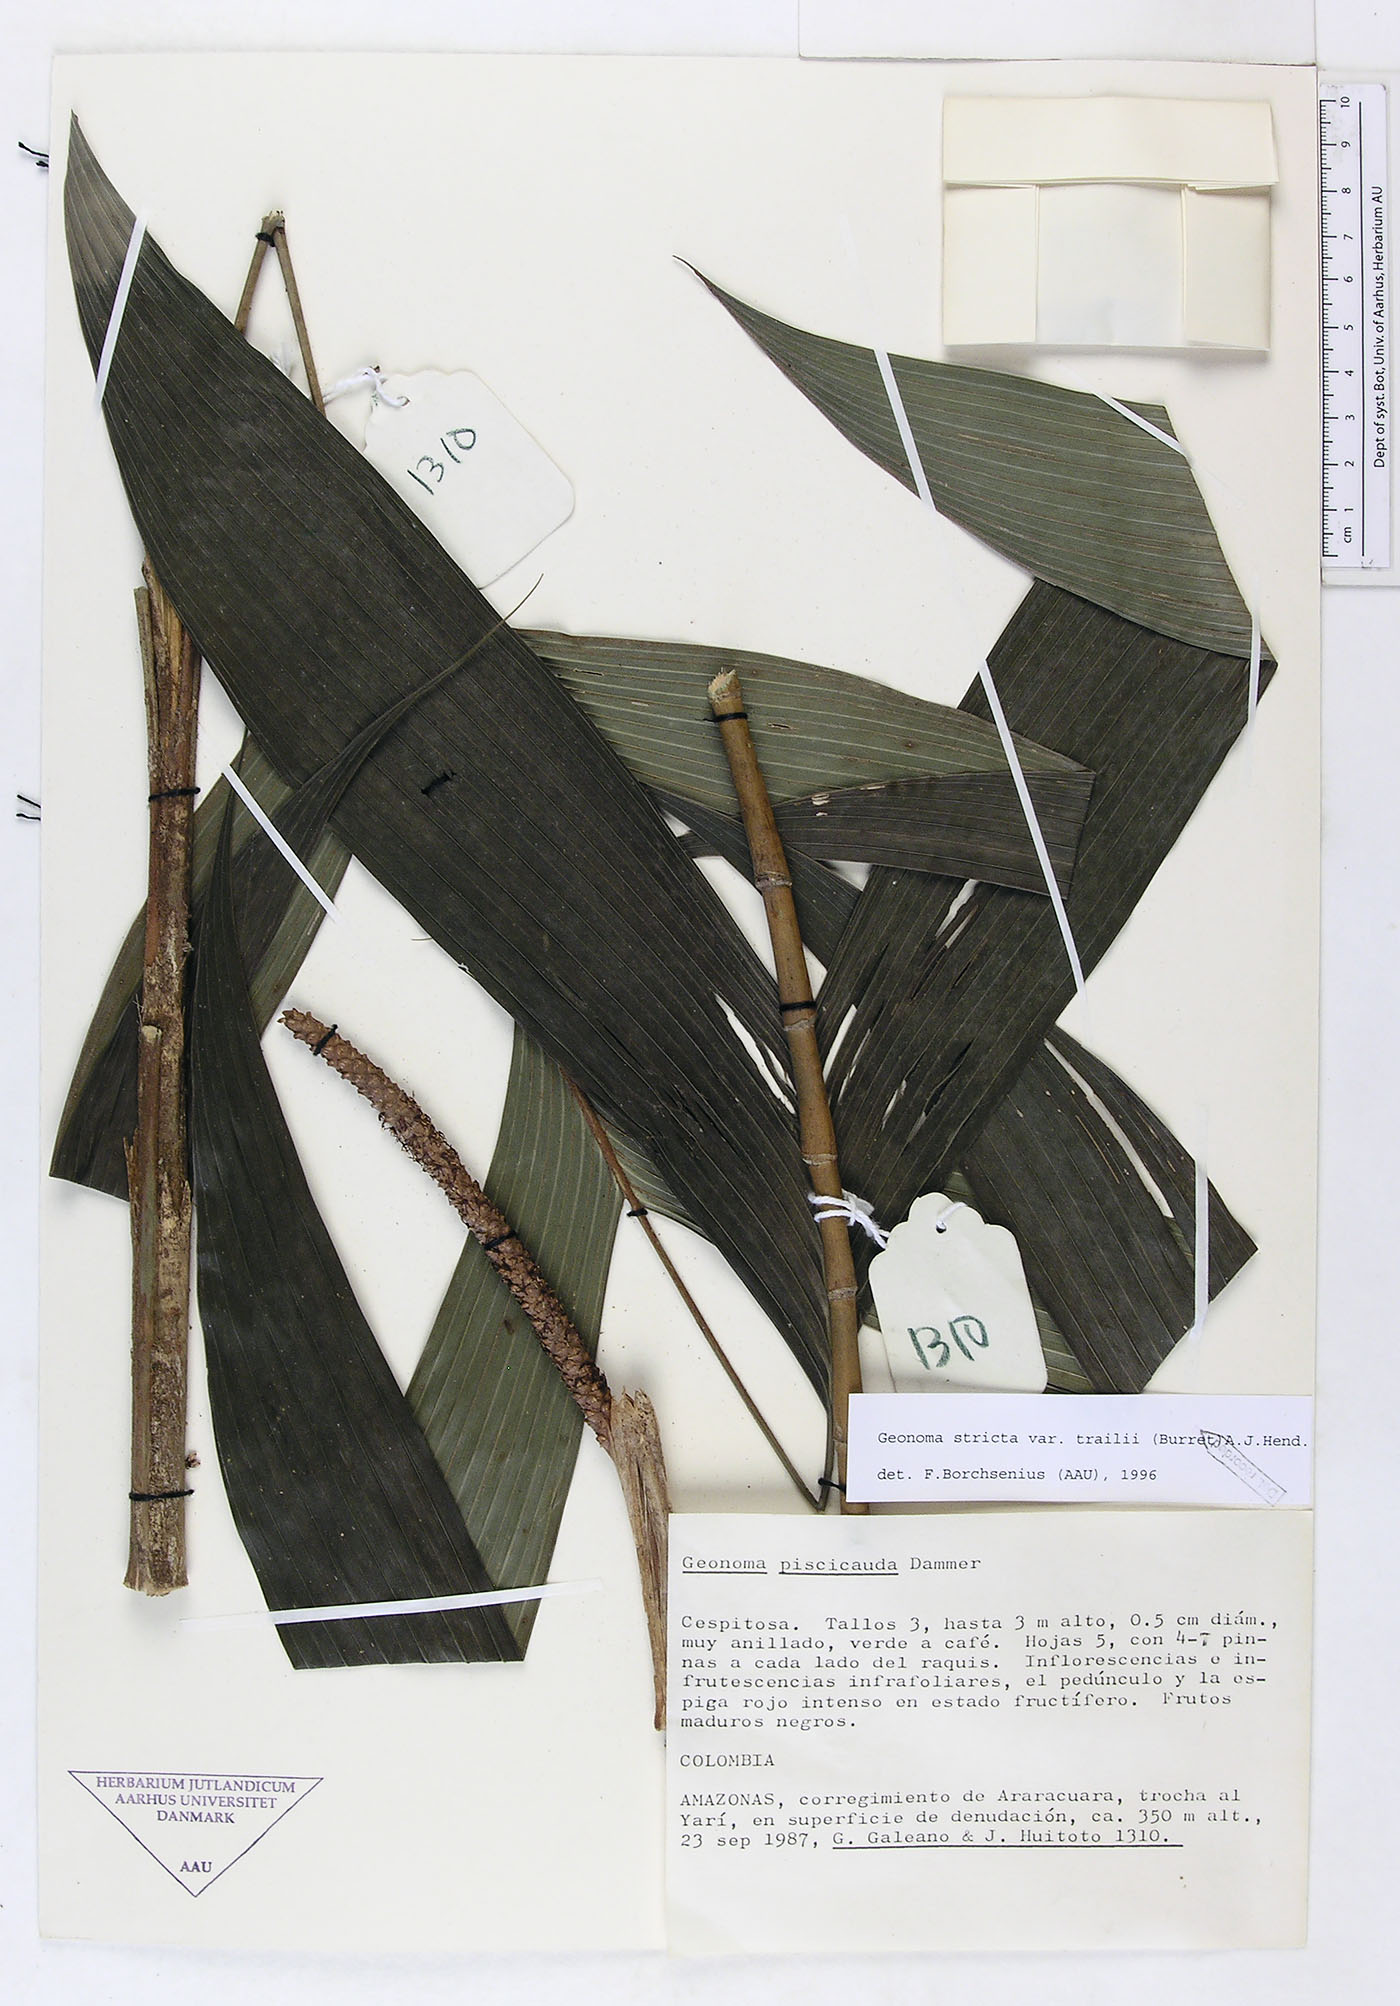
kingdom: Plantae
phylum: Tracheophyta
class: Liliopsida
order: Arecales
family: Arecaceae
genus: Geonoma
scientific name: Geonoma stricta
